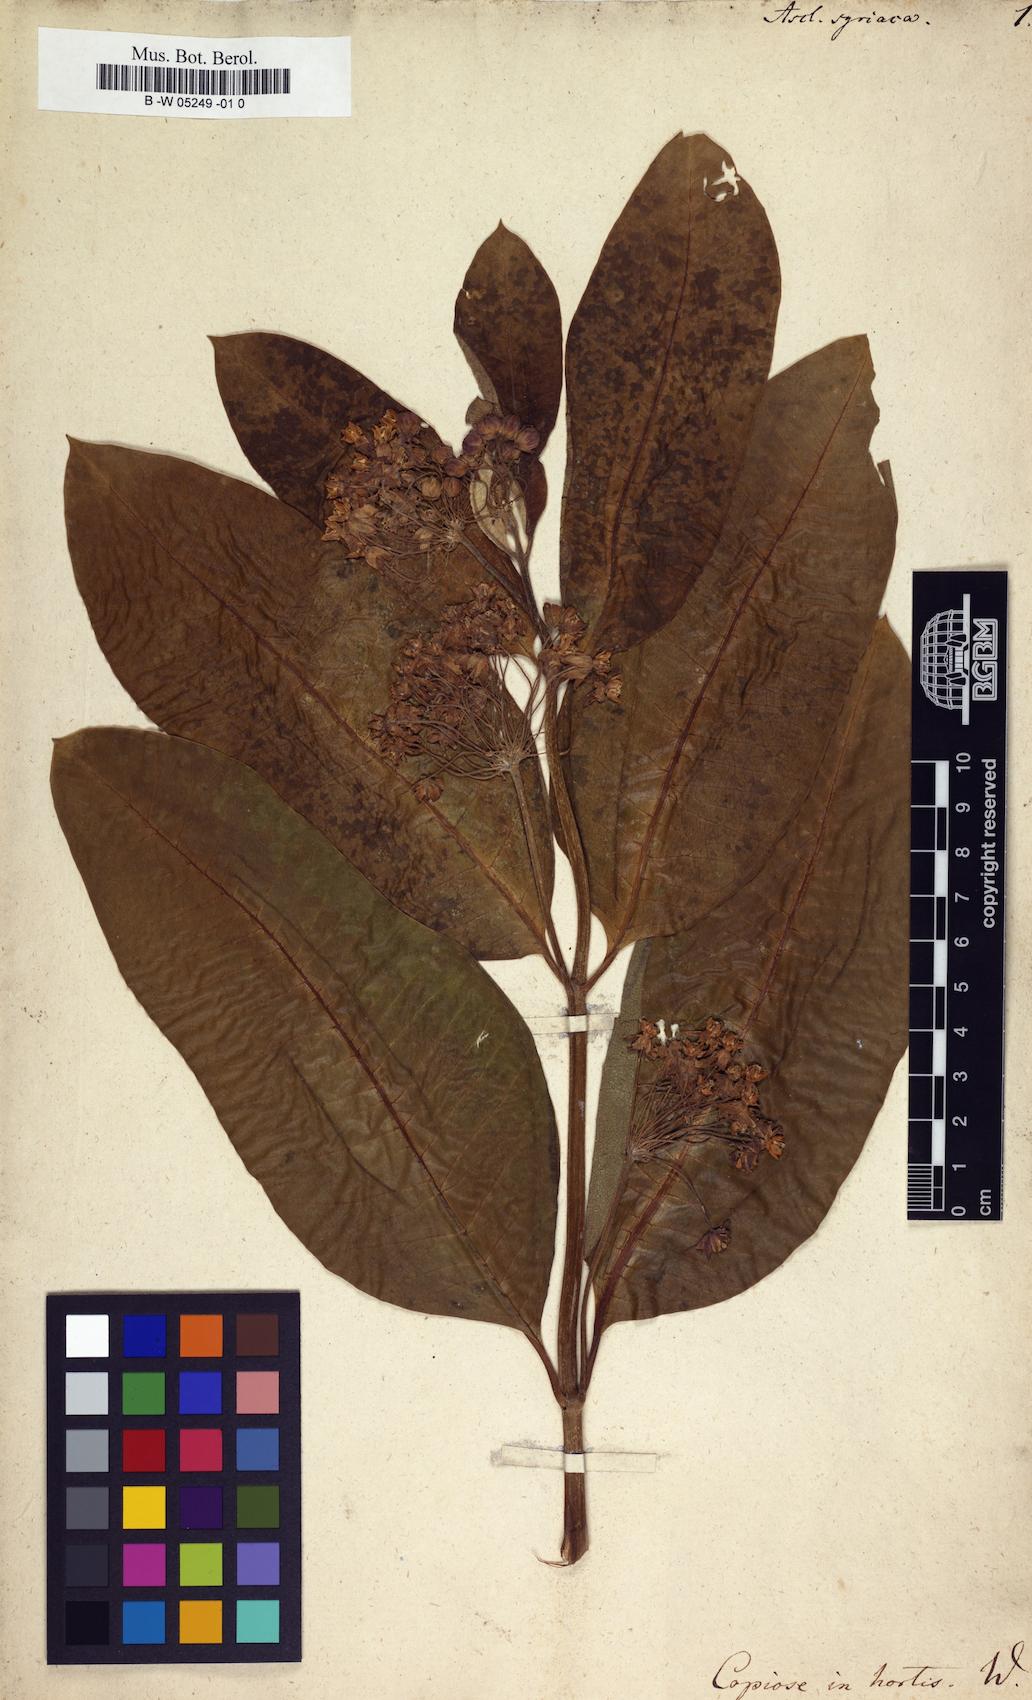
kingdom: Plantae
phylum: Tracheophyta
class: Magnoliopsida
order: Gentianales
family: Apocynaceae
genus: Asclepias
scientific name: Asclepias syriaca
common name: Common milkweed
